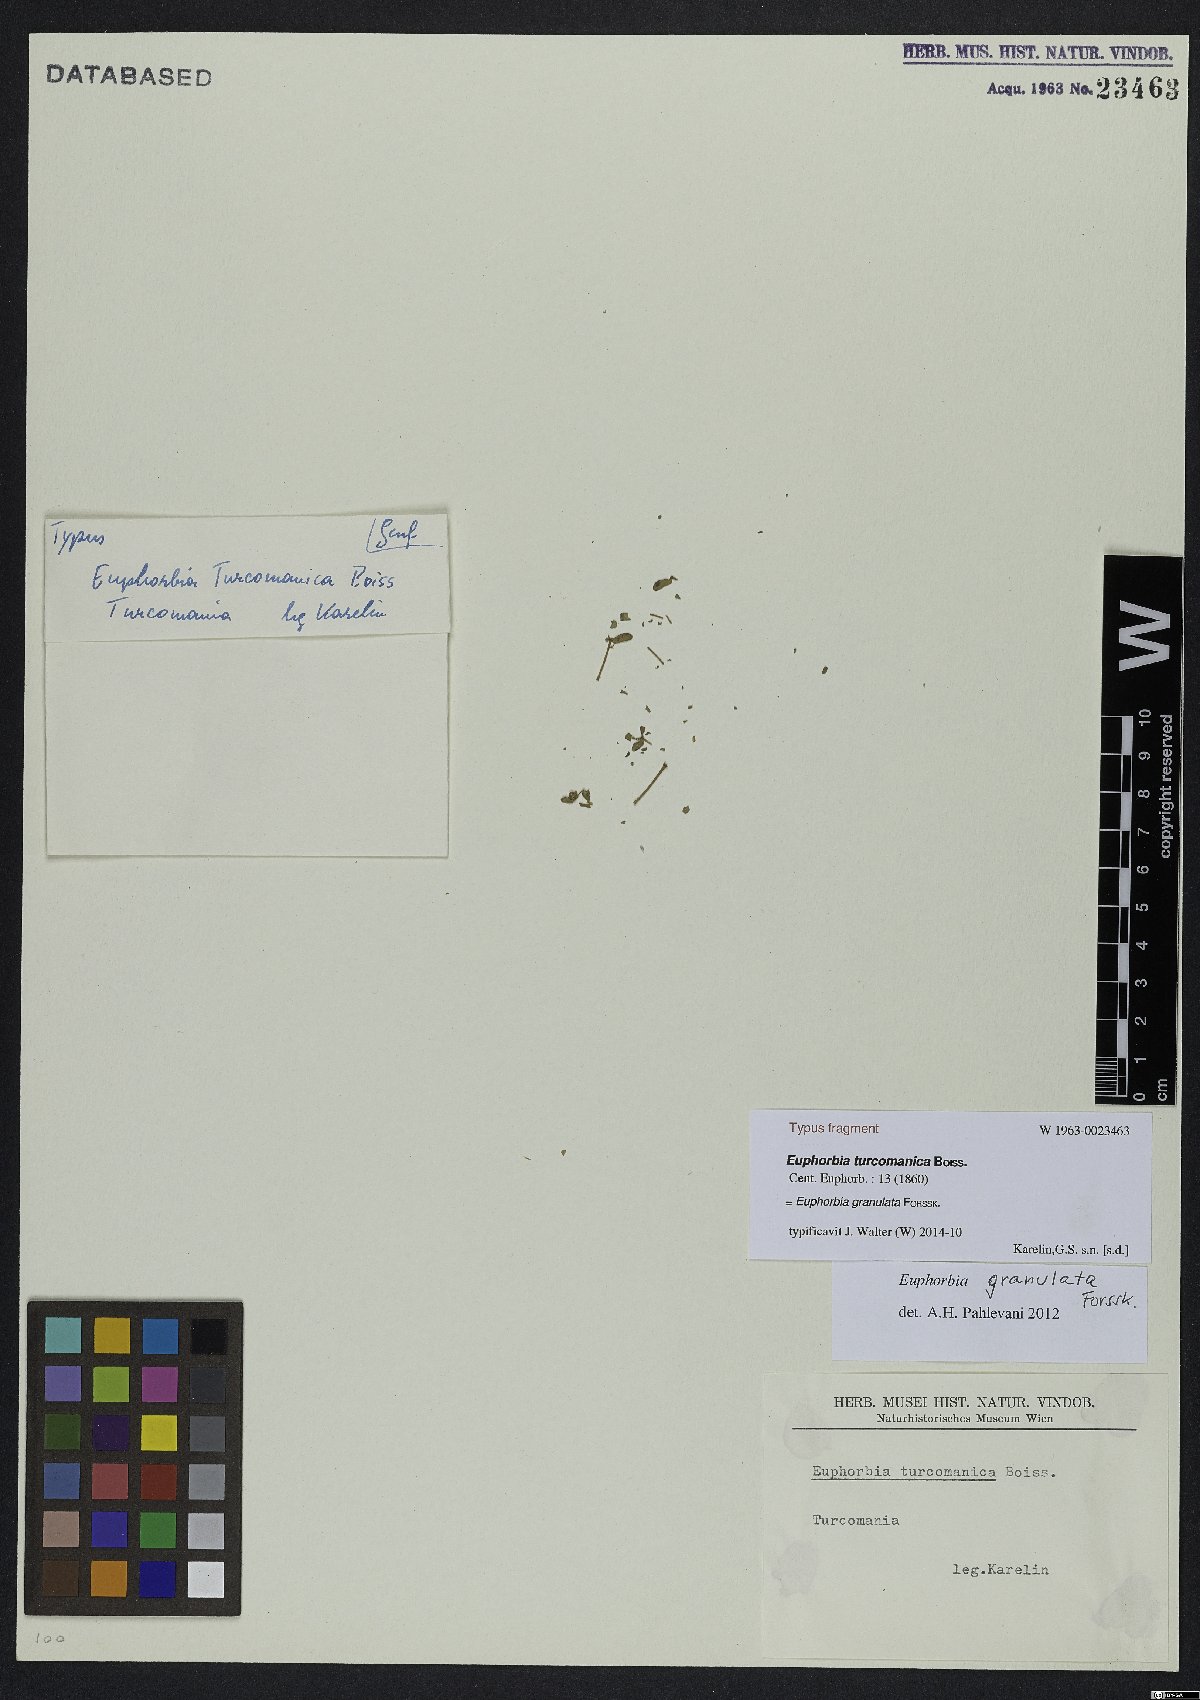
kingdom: Plantae
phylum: Tracheophyta
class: Magnoliopsida
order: Malpighiales
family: Euphorbiaceae
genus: Euphorbia
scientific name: Euphorbia granulata
